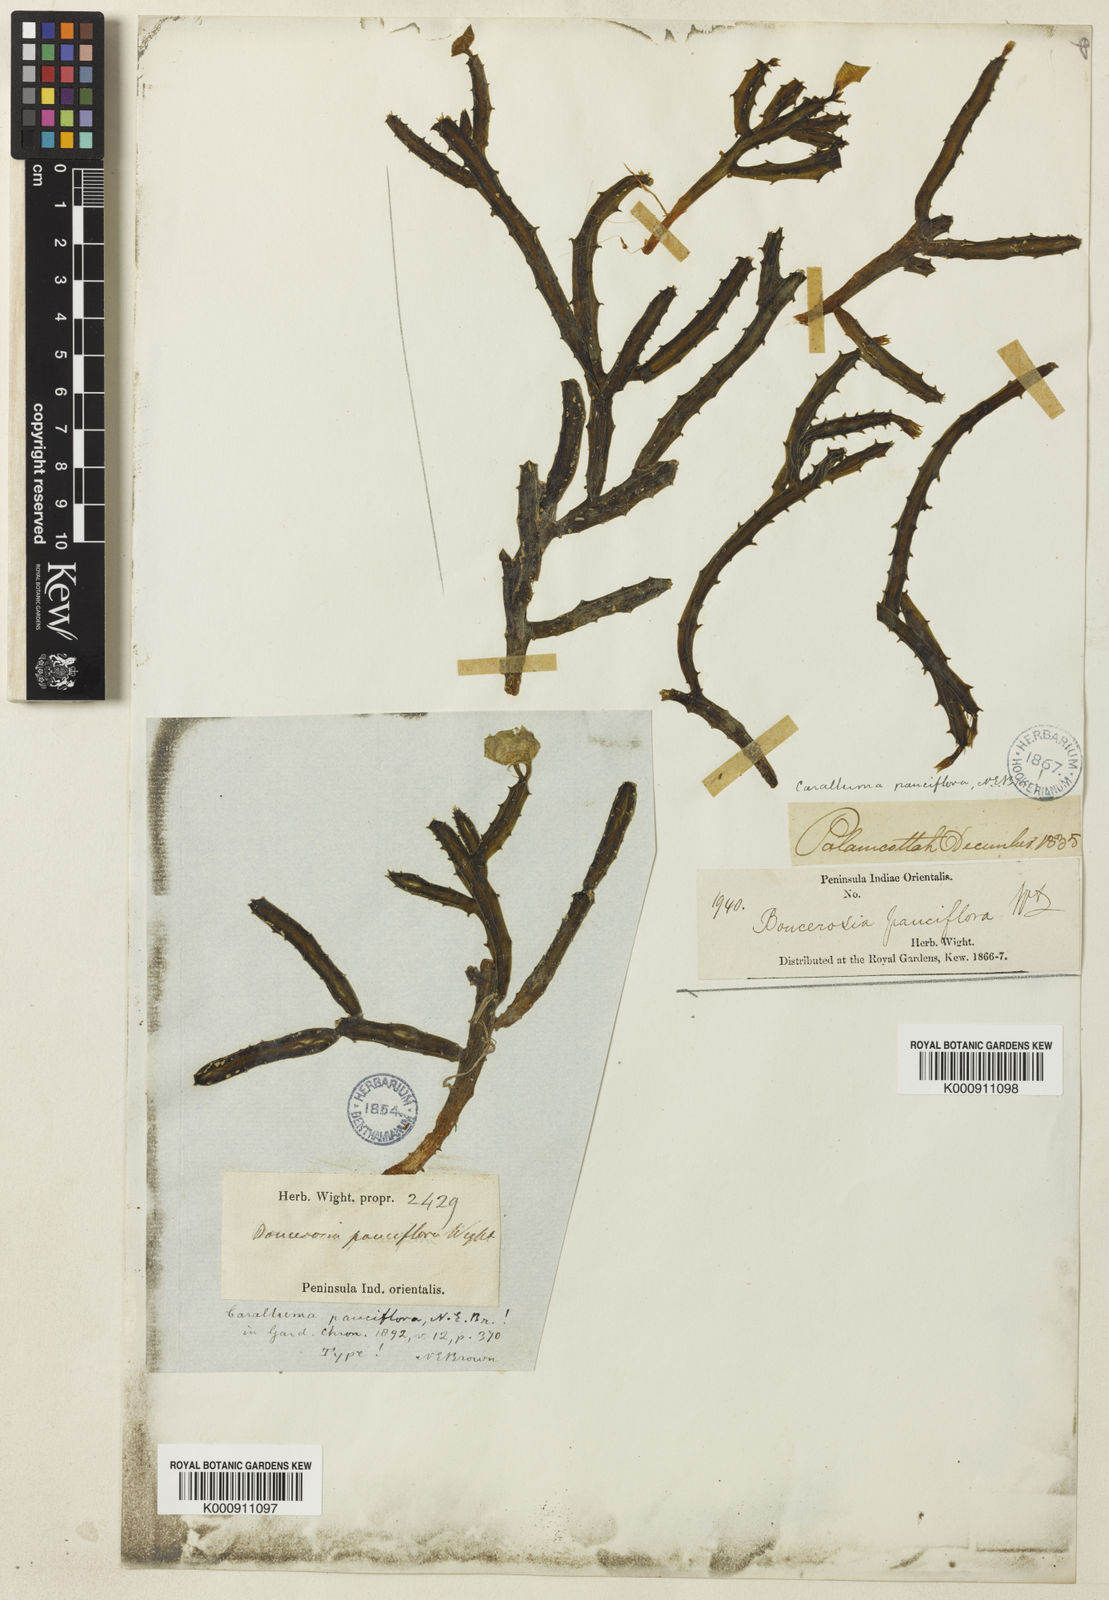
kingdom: Plantae
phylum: Tracheophyta
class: Magnoliopsida
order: Gentianales
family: Apocynaceae
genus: Ceropegia
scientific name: Ceropegia pauciflora
